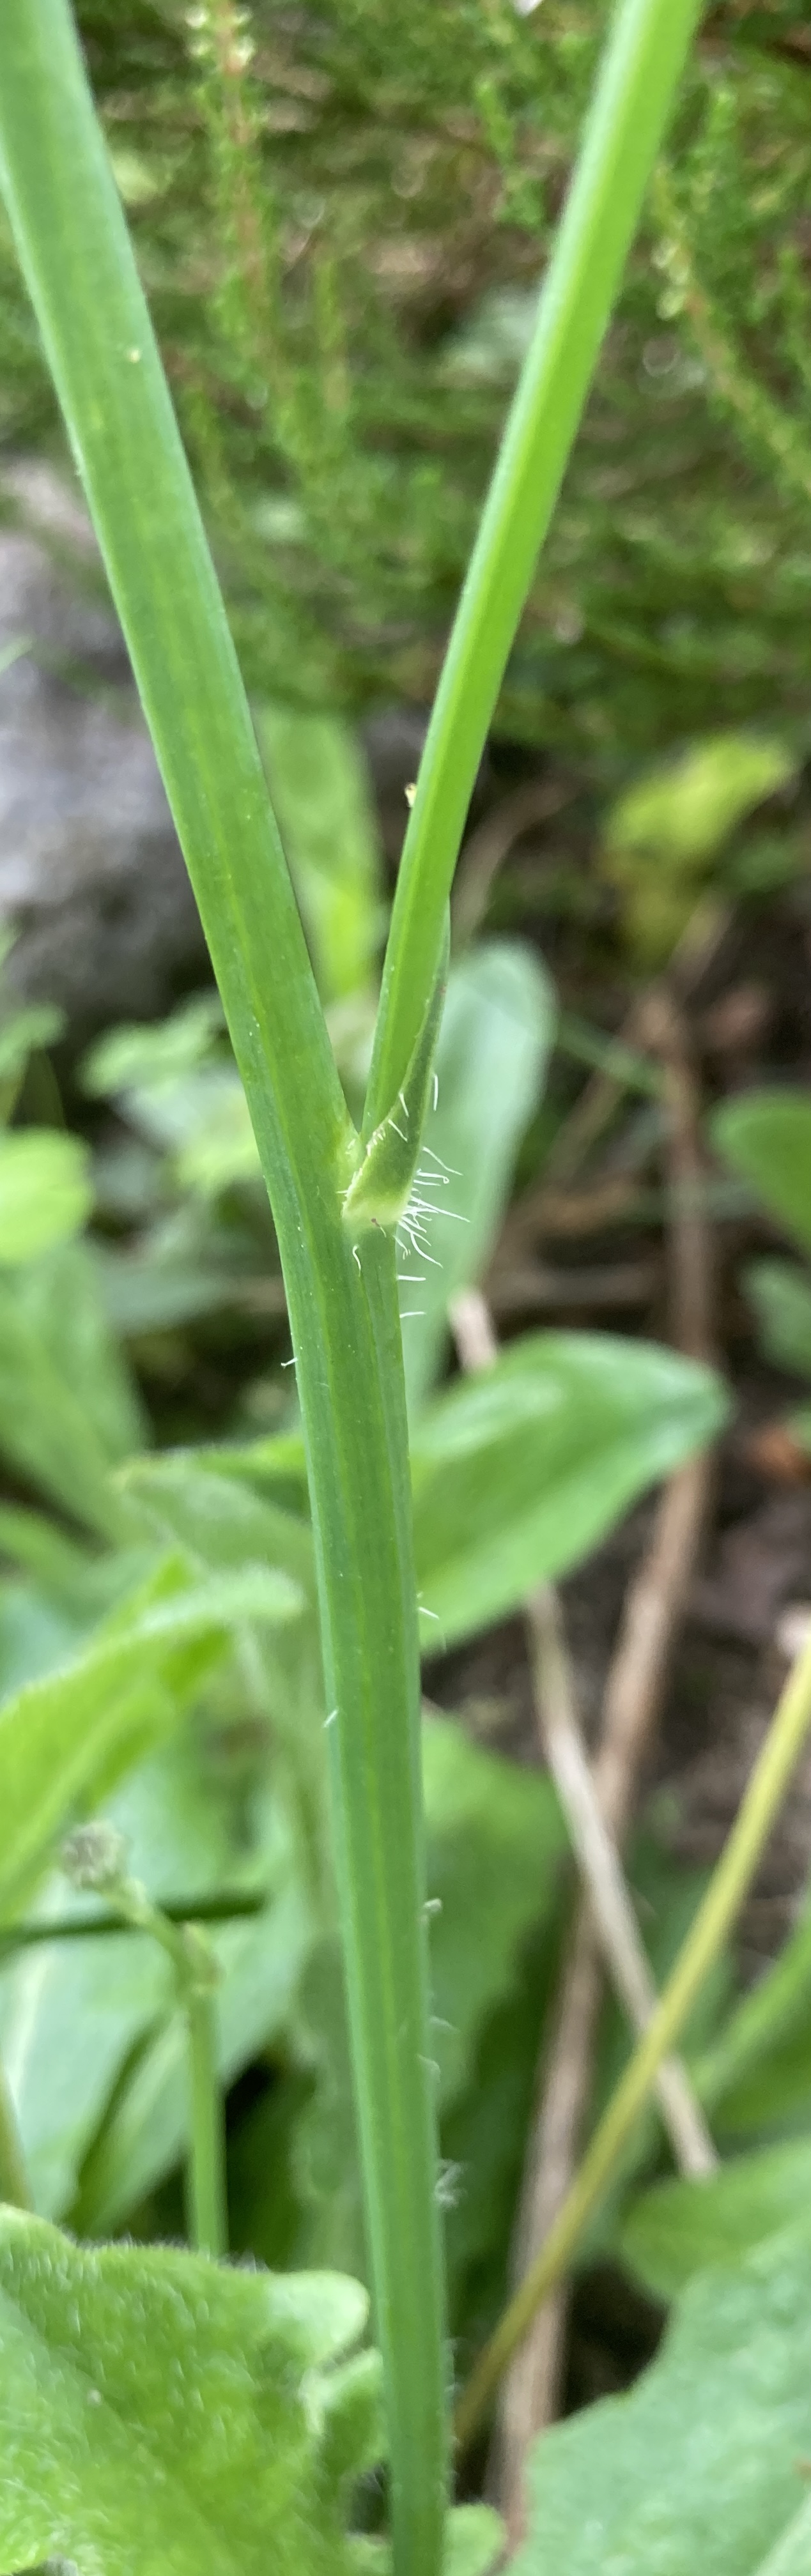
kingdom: Plantae
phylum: Tracheophyta
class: Magnoliopsida
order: Asterales
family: Asteraceae
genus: Hypochaeris
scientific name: Hypochaeris radicata
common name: Almindelig kongepen
